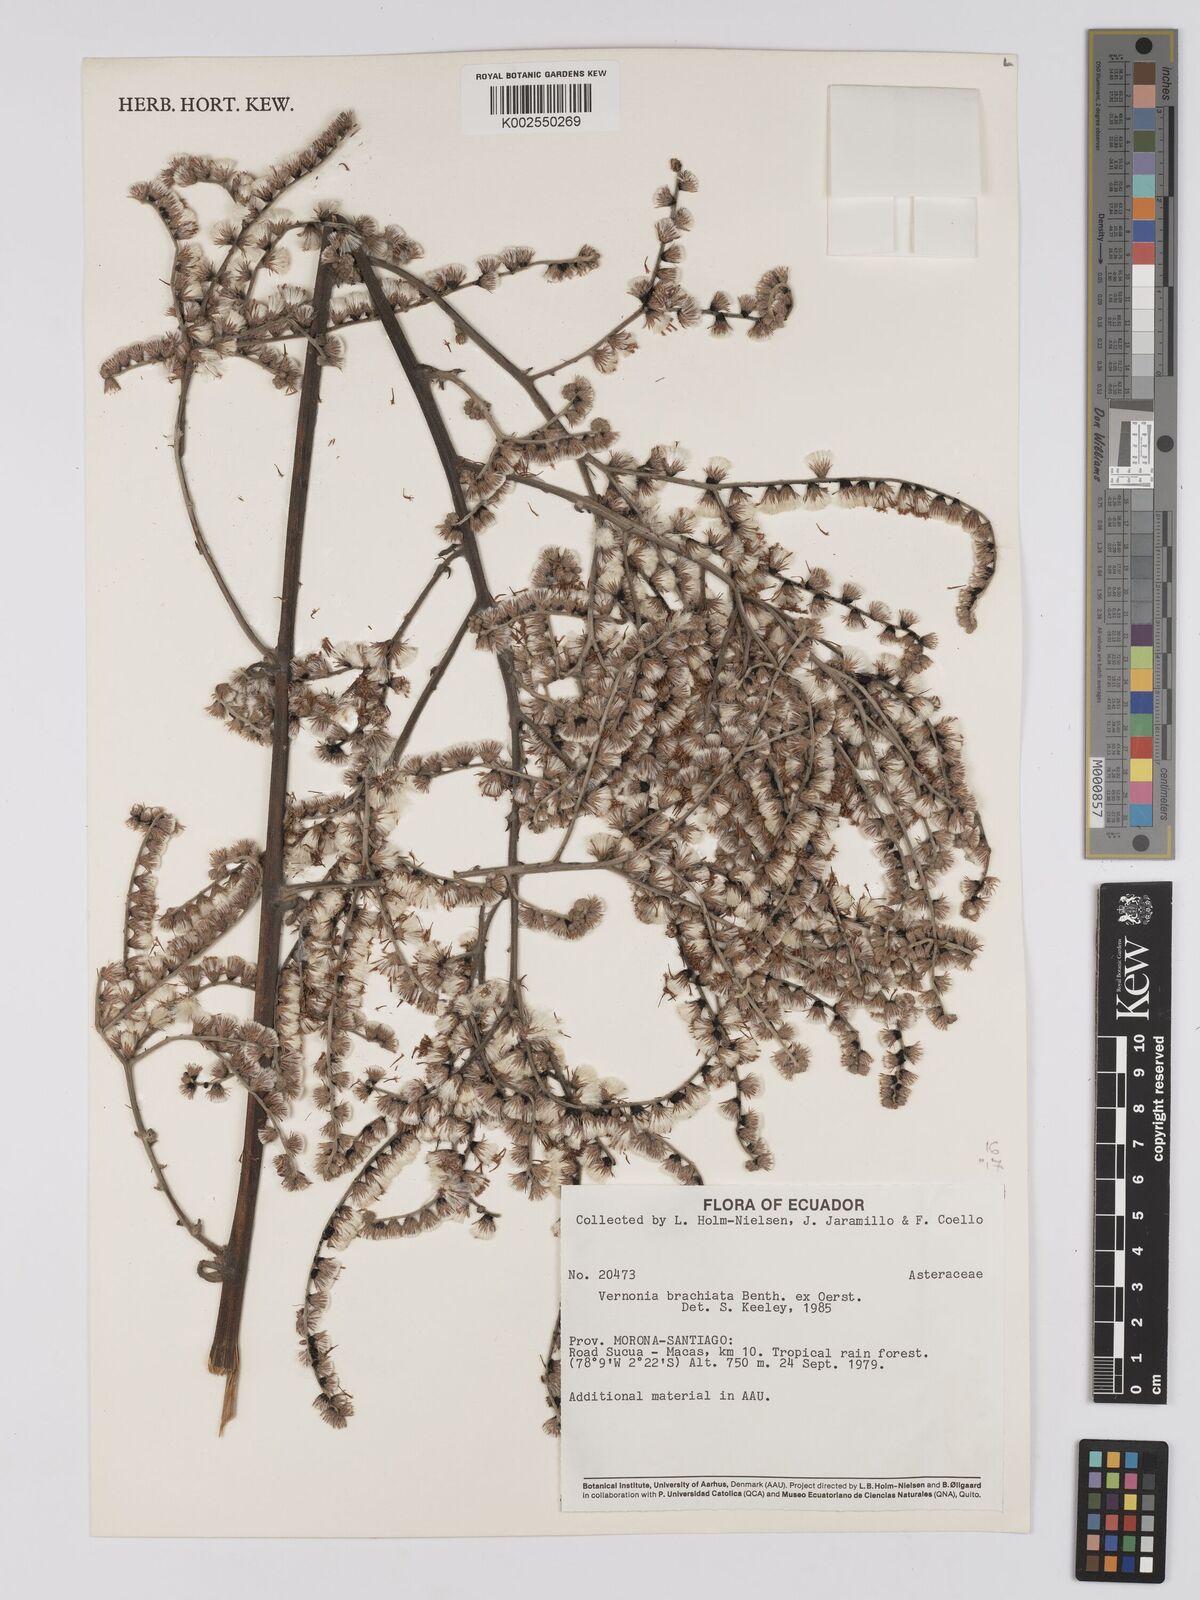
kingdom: Plantae
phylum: Tracheophyta
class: Magnoliopsida
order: Asterales
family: Asteraceae
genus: Eirmocephala
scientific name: Eirmocephala brachiata
